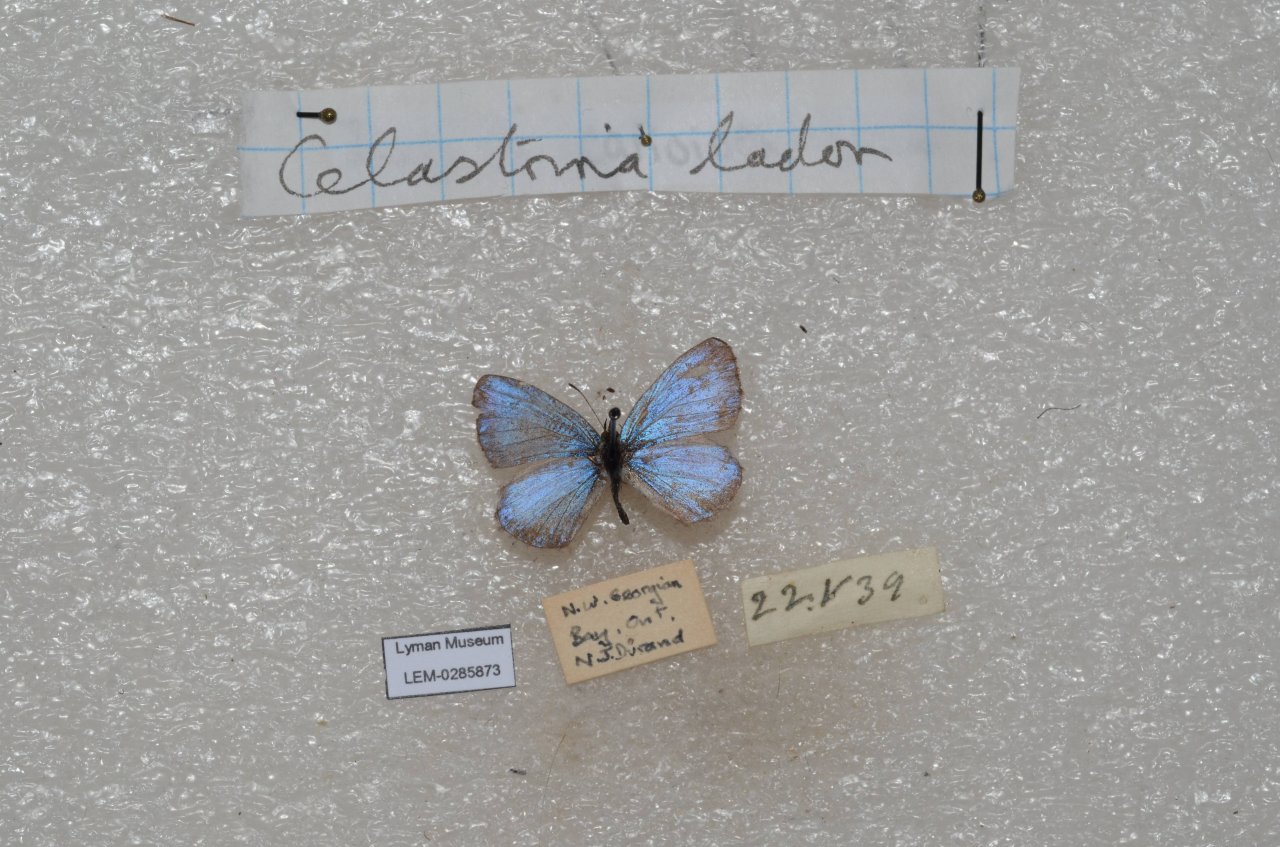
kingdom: Animalia
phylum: Arthropoda
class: Insecta
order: Lepidoptera
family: Lycaenidae
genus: Celastrina
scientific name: Celastrina lucia
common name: Northern Spring Azure
